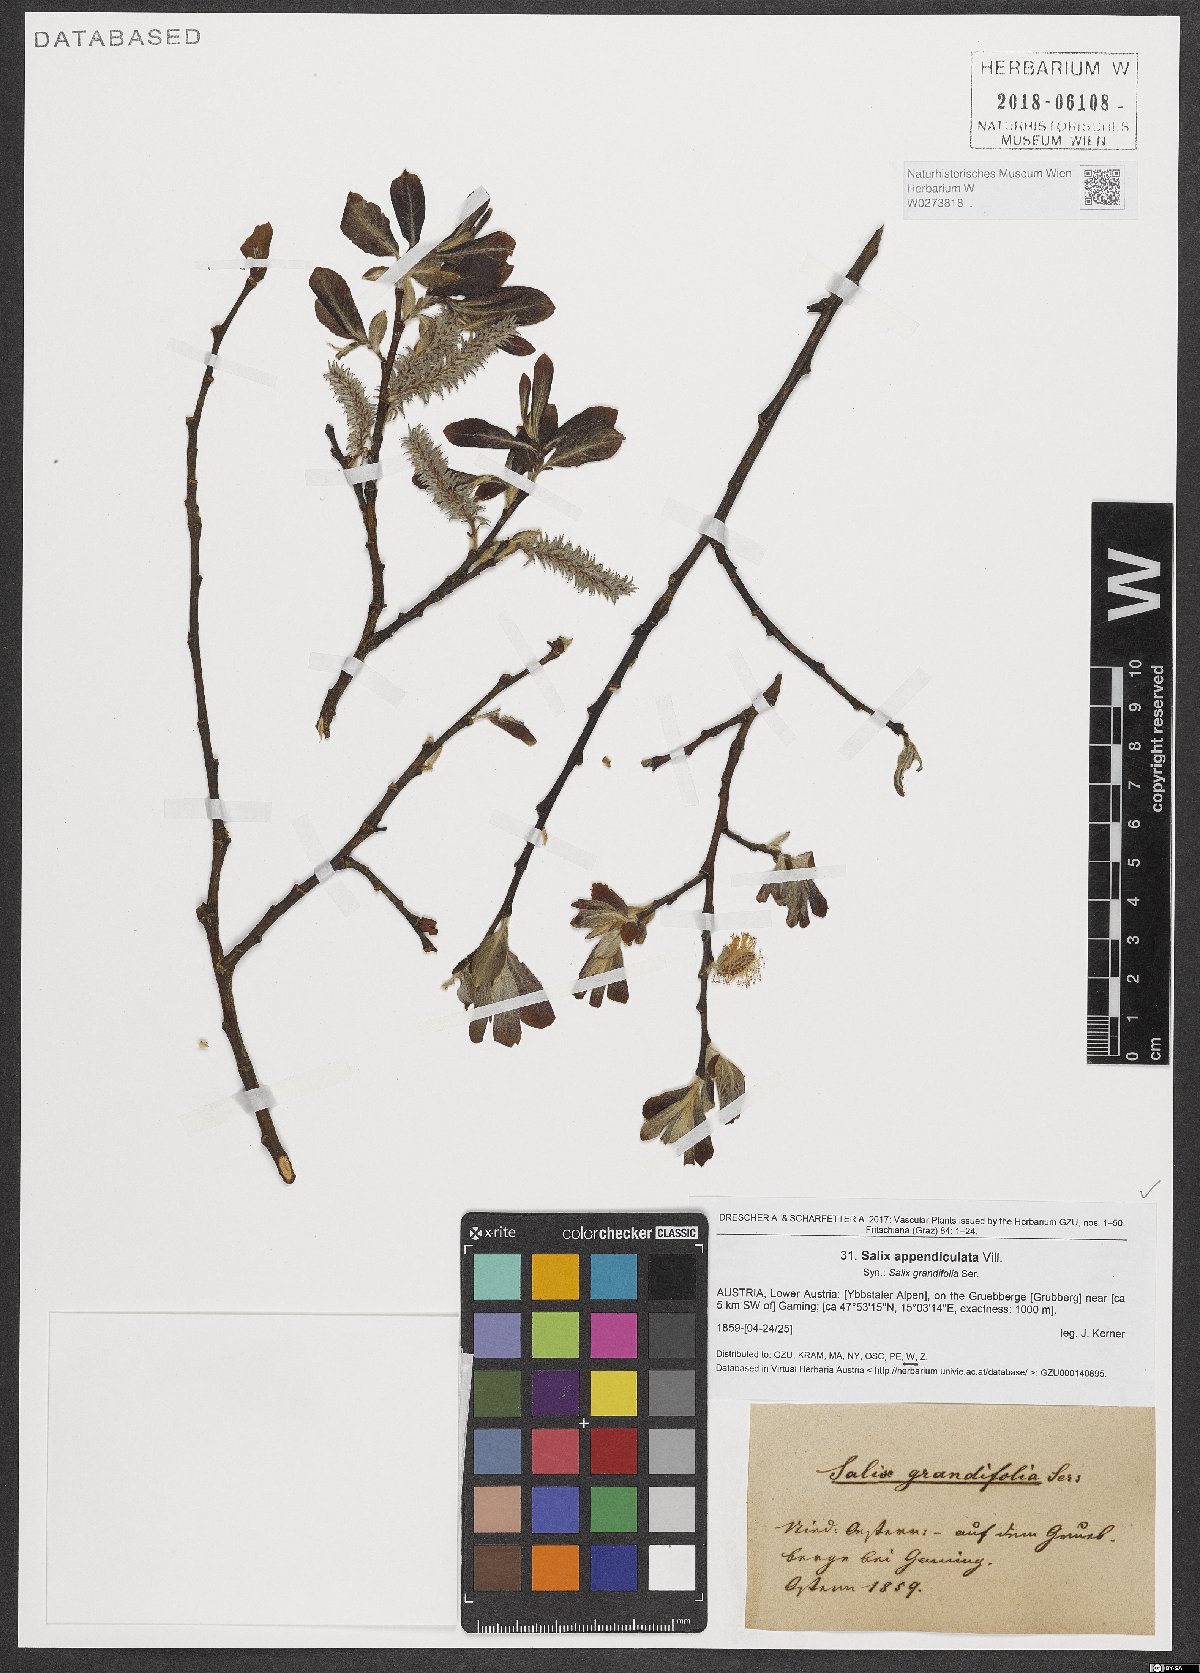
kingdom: Plantae
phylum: Tracheophyta
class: Magnoliopsida
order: Malpighiales
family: Salicaceae
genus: Salix
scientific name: Salix appendiculata
